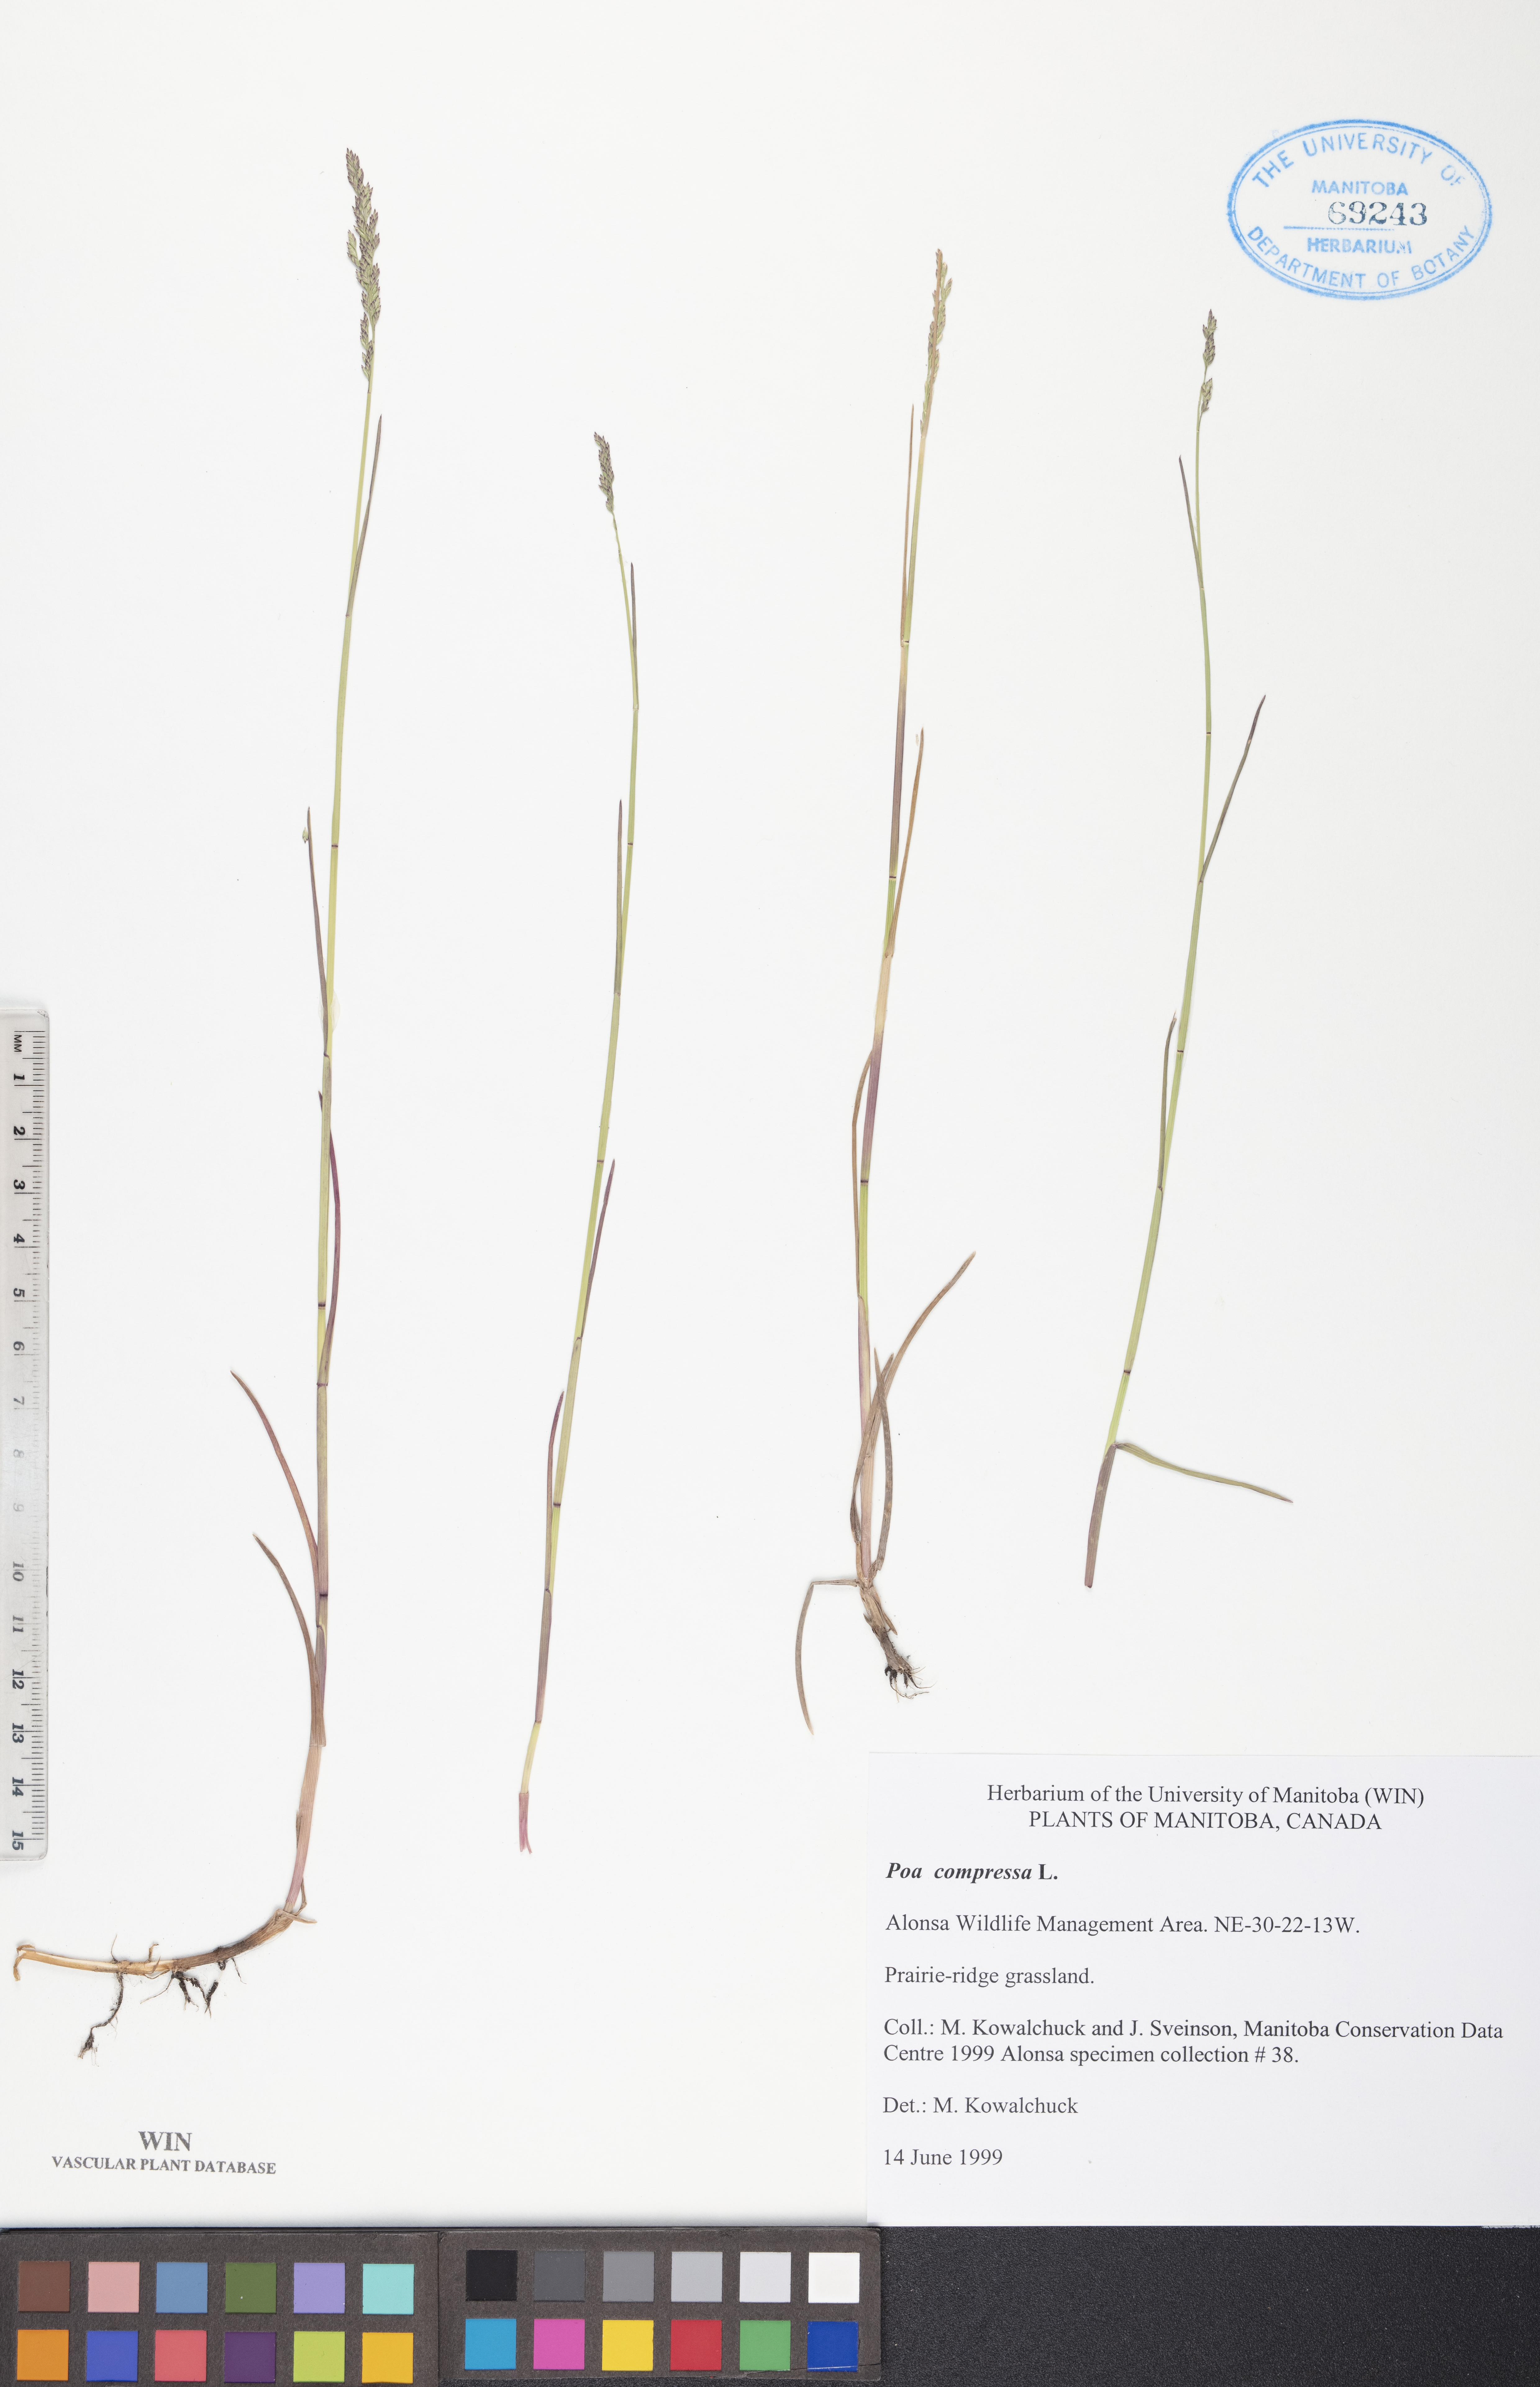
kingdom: Plantae
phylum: Tracheophyta
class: Liliopsida
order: Poales
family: Poaceae
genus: Poa
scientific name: Poa compressa
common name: Canada bluegrass
